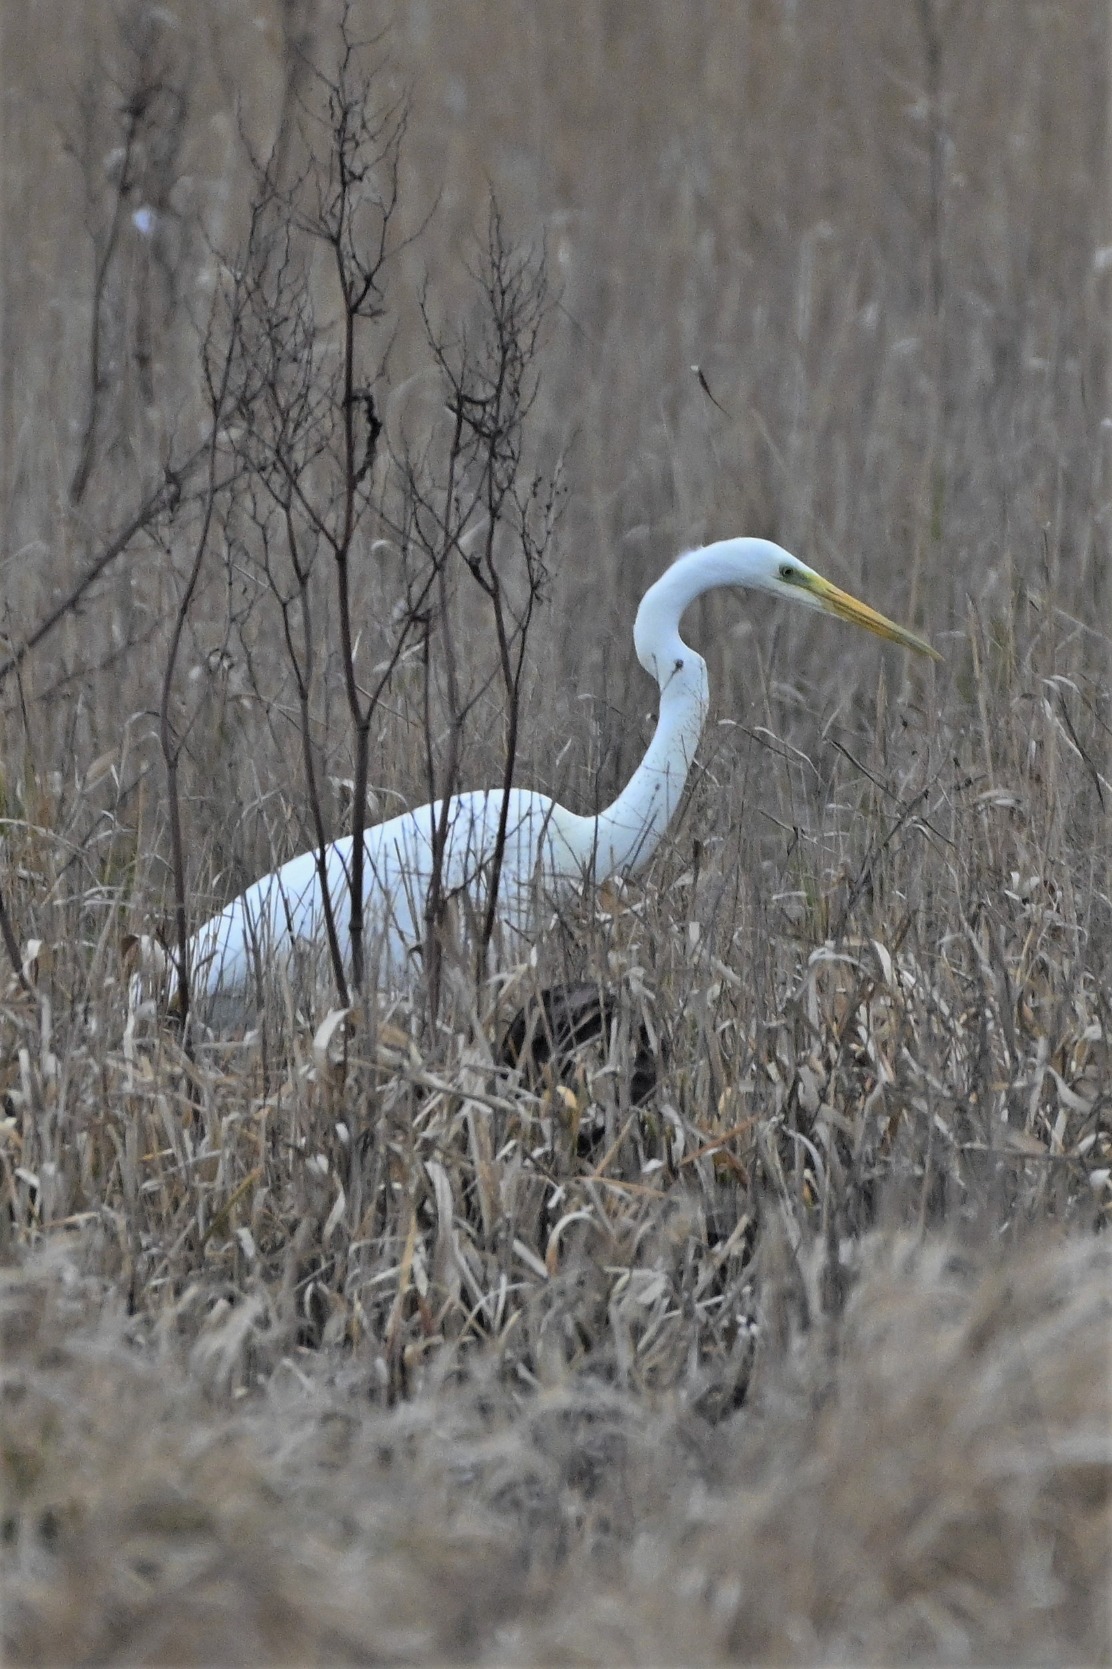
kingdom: Animalia
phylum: Chordata
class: Aves
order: Pelecaniformes
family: Ardeidae
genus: Ardea
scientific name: Ardea alba
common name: Sølvhejre
